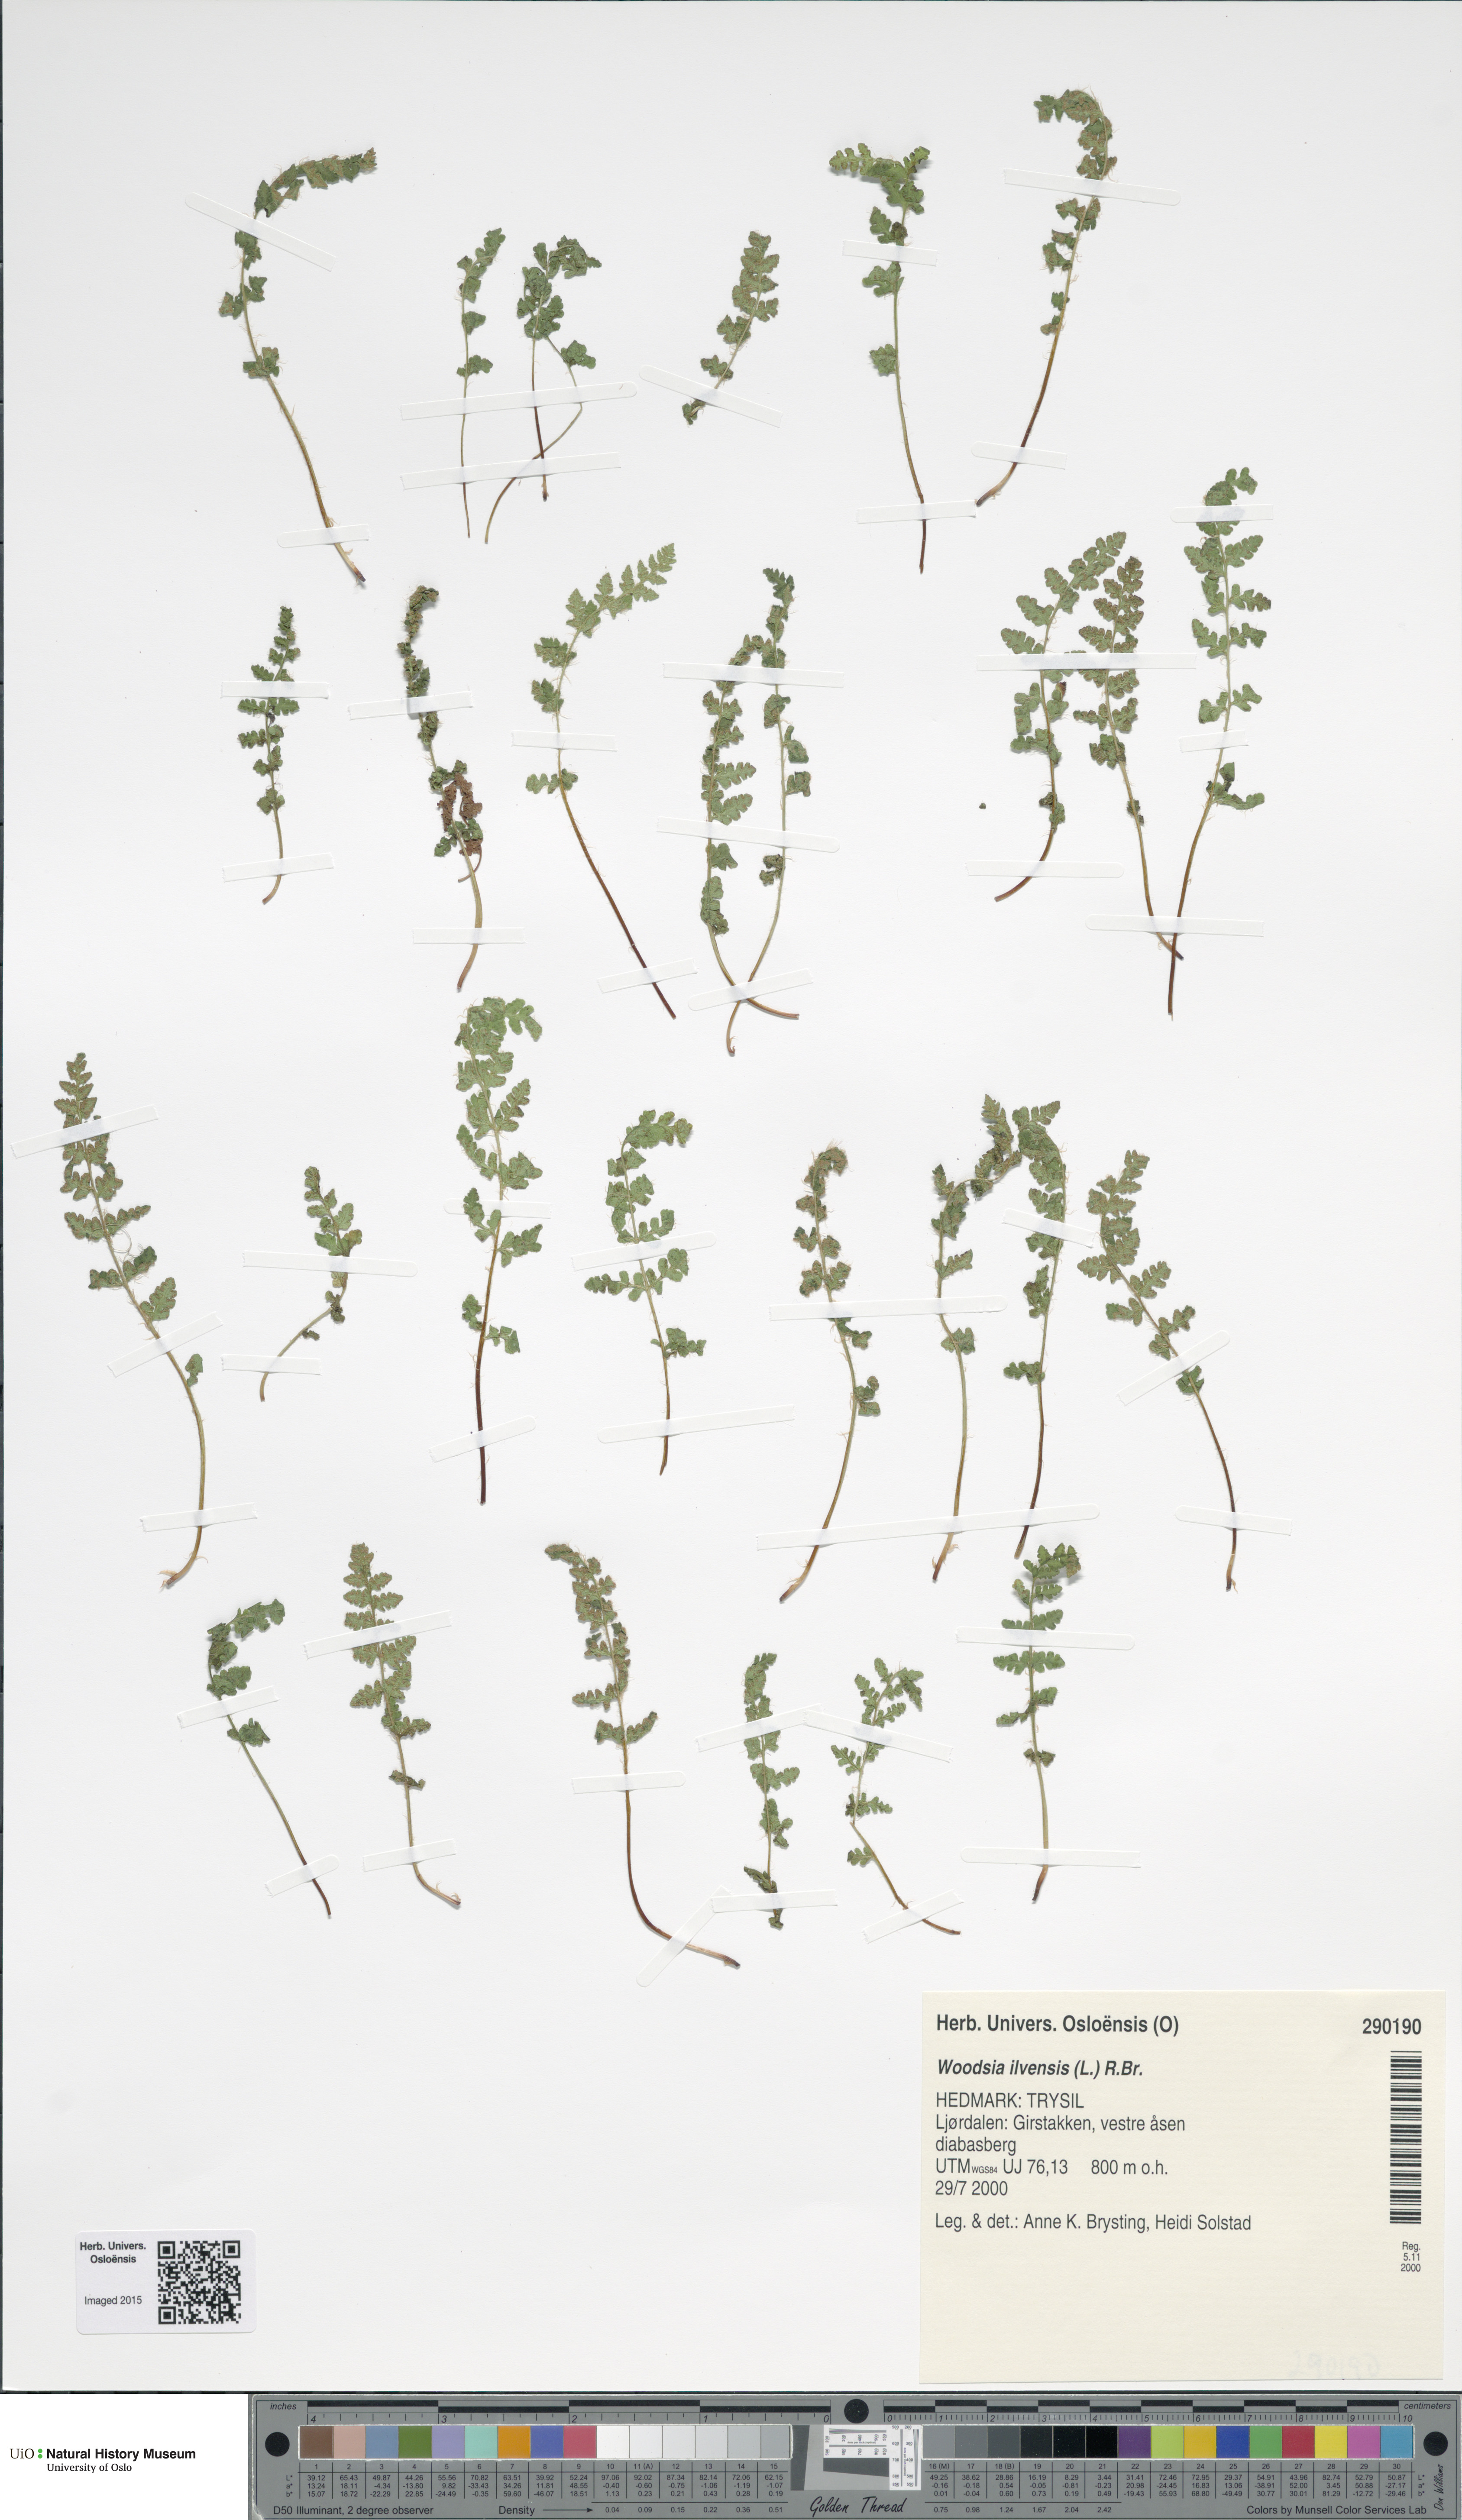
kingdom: Plantae
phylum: Tracheophyta
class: Polypodiopsida
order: Polypodiales
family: Woodsiaceae
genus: Woodsia
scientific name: Woodsia ilvensis
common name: Fragrant woodsia
